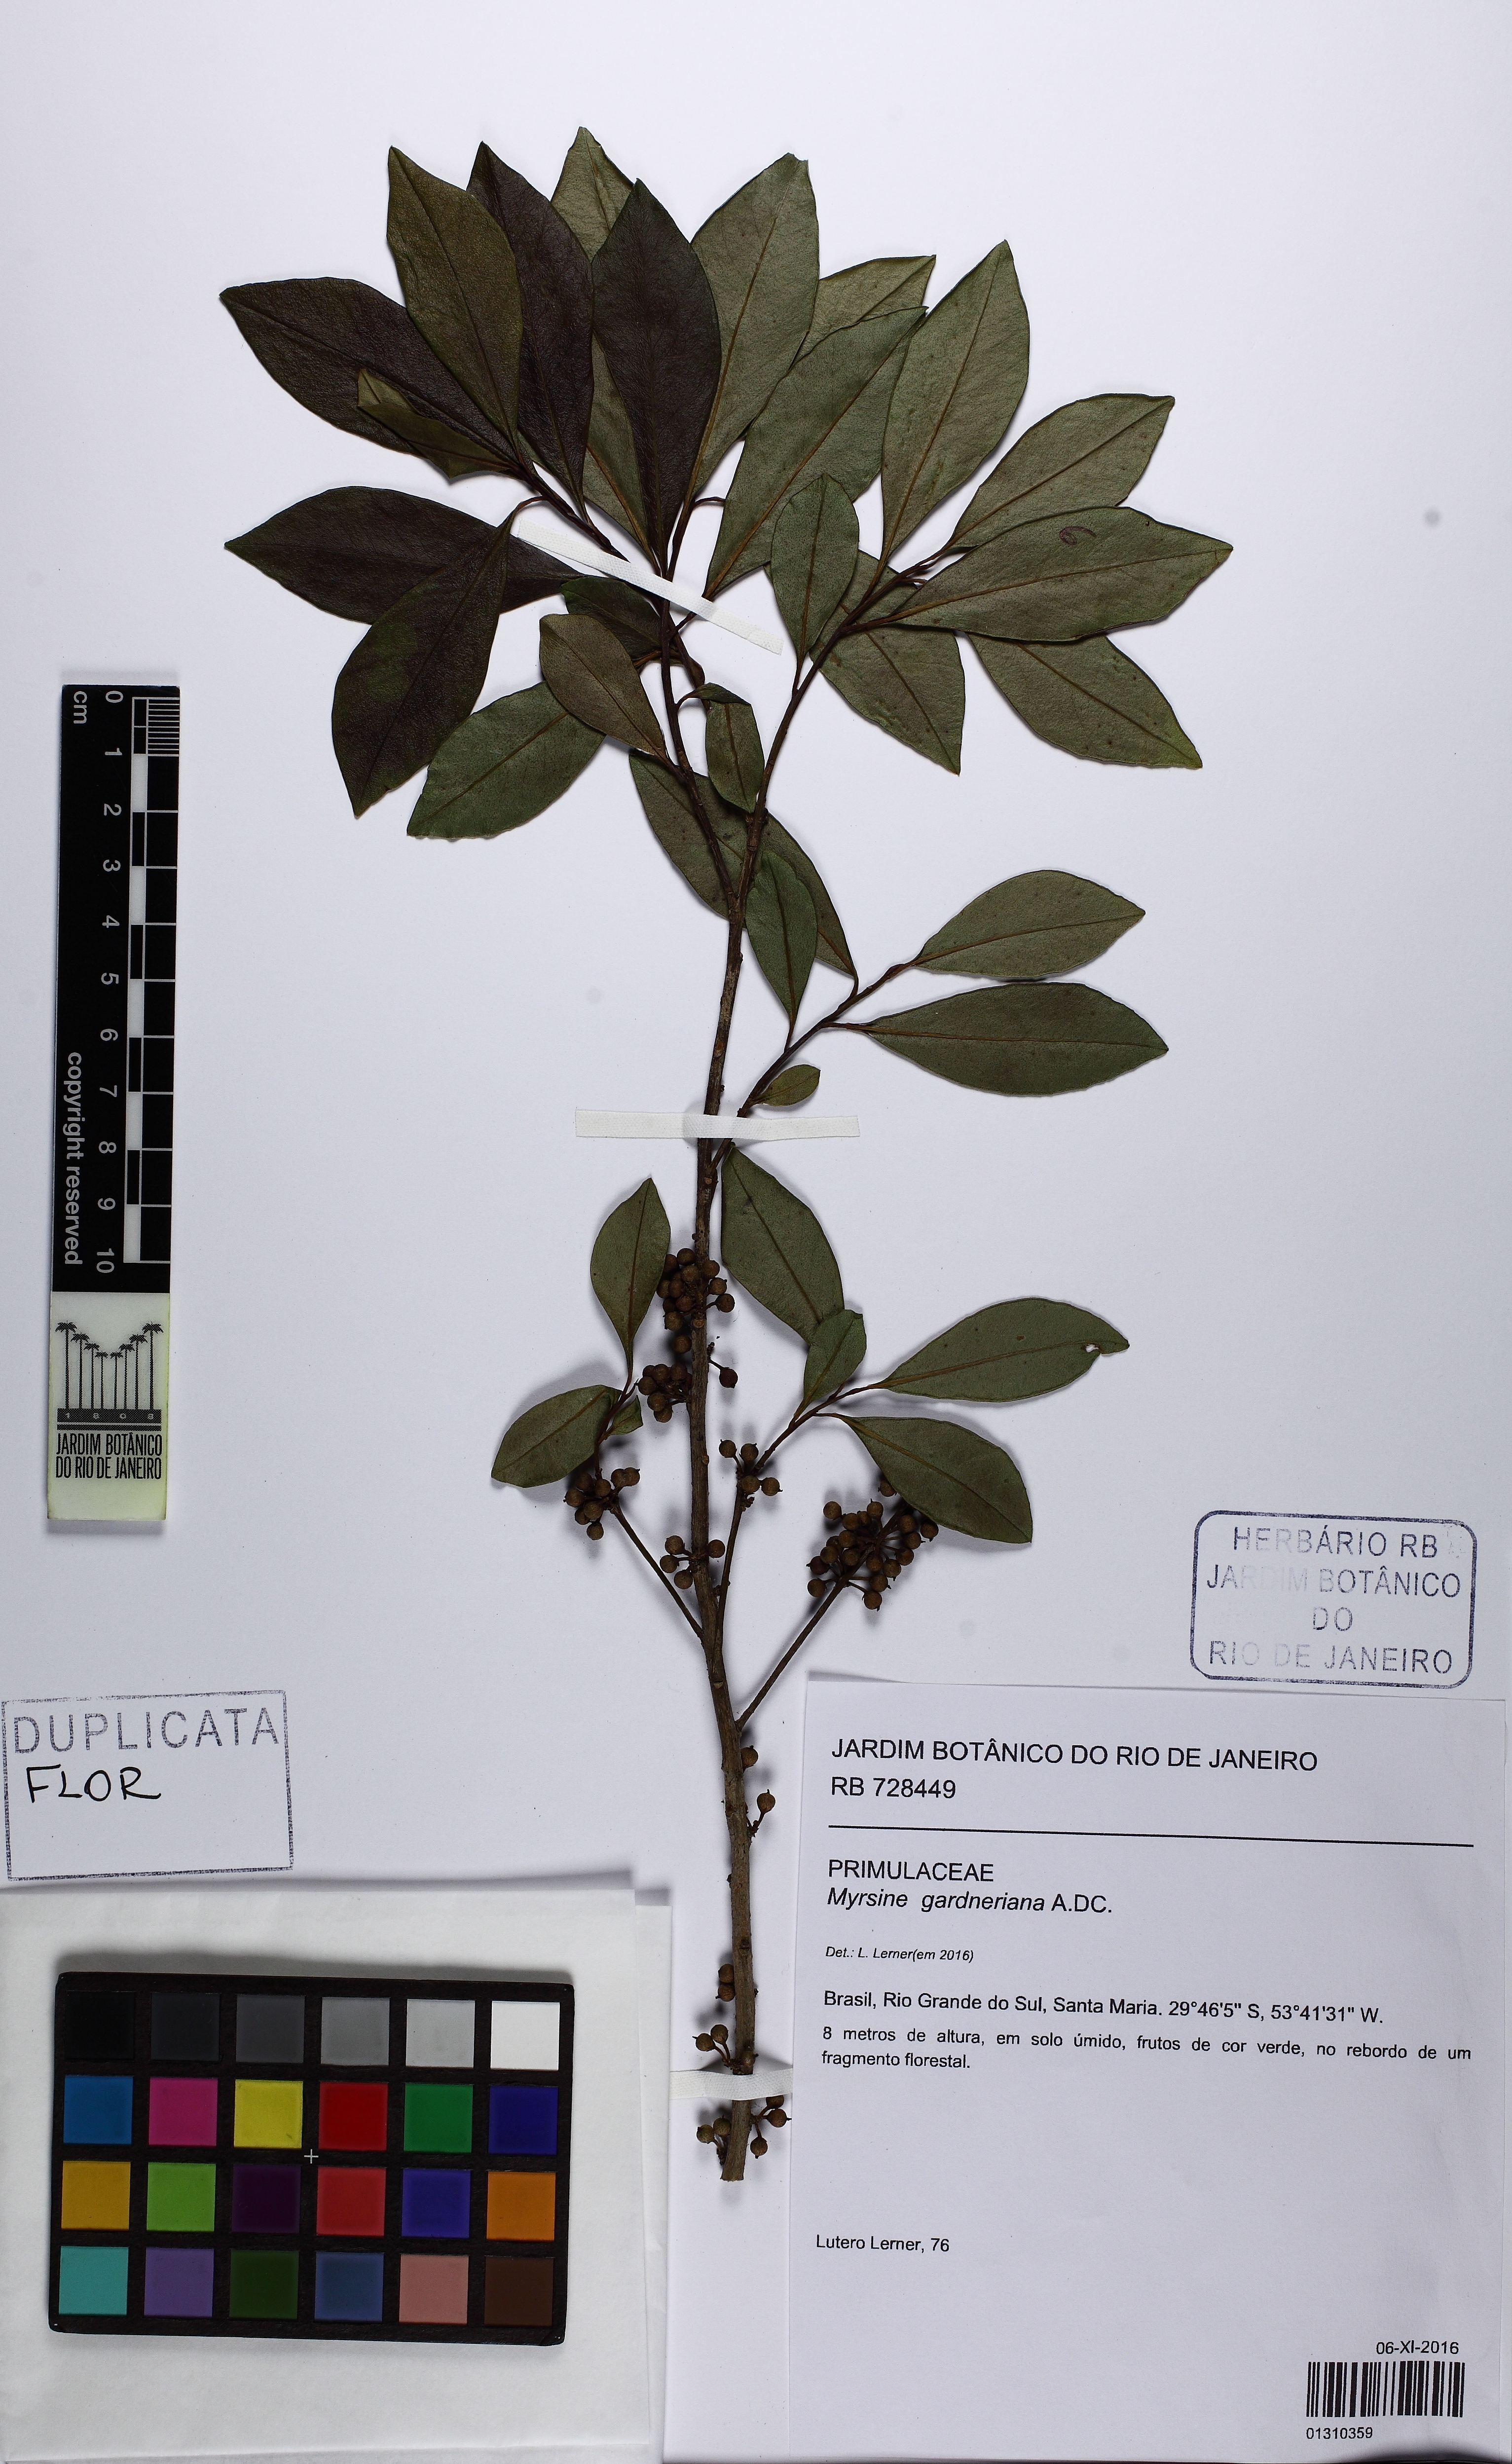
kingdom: Plantae
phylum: Tracheophyta
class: Magnoliopsida
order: Ericales
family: Primulaceae
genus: Myrsine
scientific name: Myrsine gardneriana
